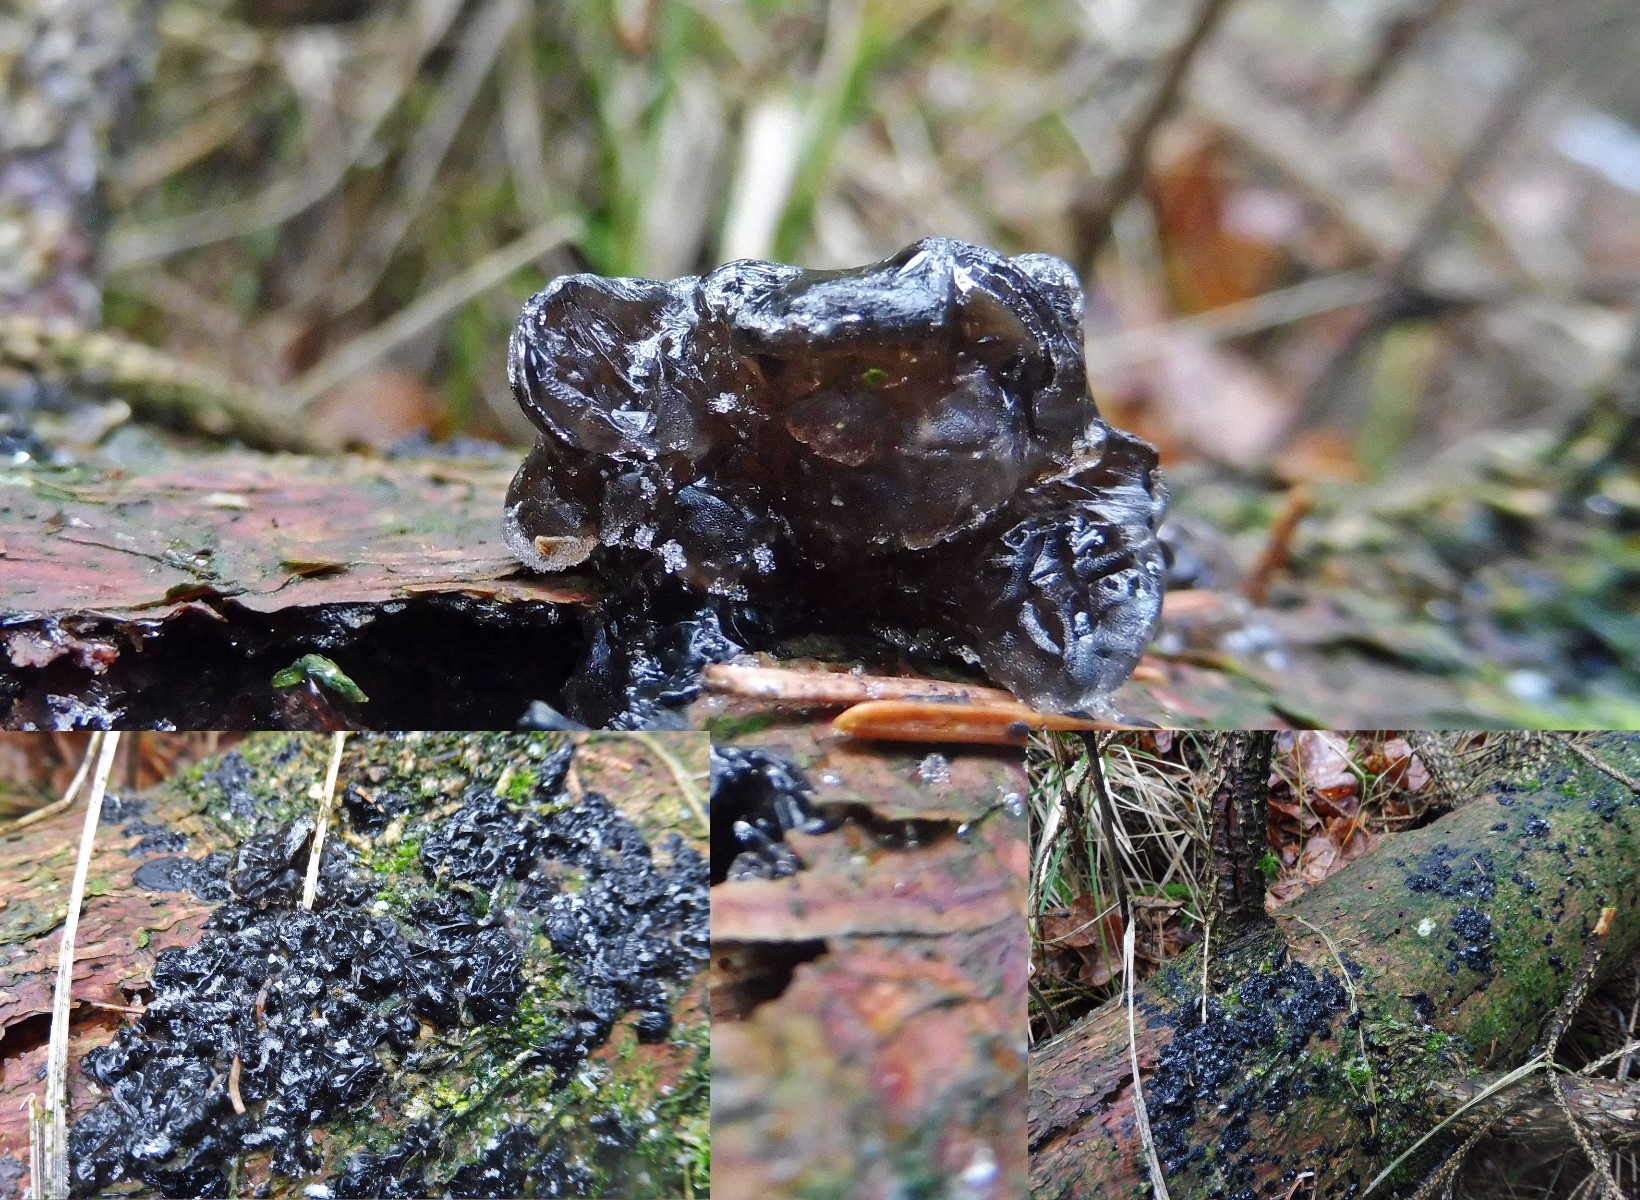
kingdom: Fungi
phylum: Basidiomycota
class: Agaricomycetes
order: Auriculariales
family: Auriculariaceae
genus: Exidia
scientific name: Exidia pithya
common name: gran-bævretop
